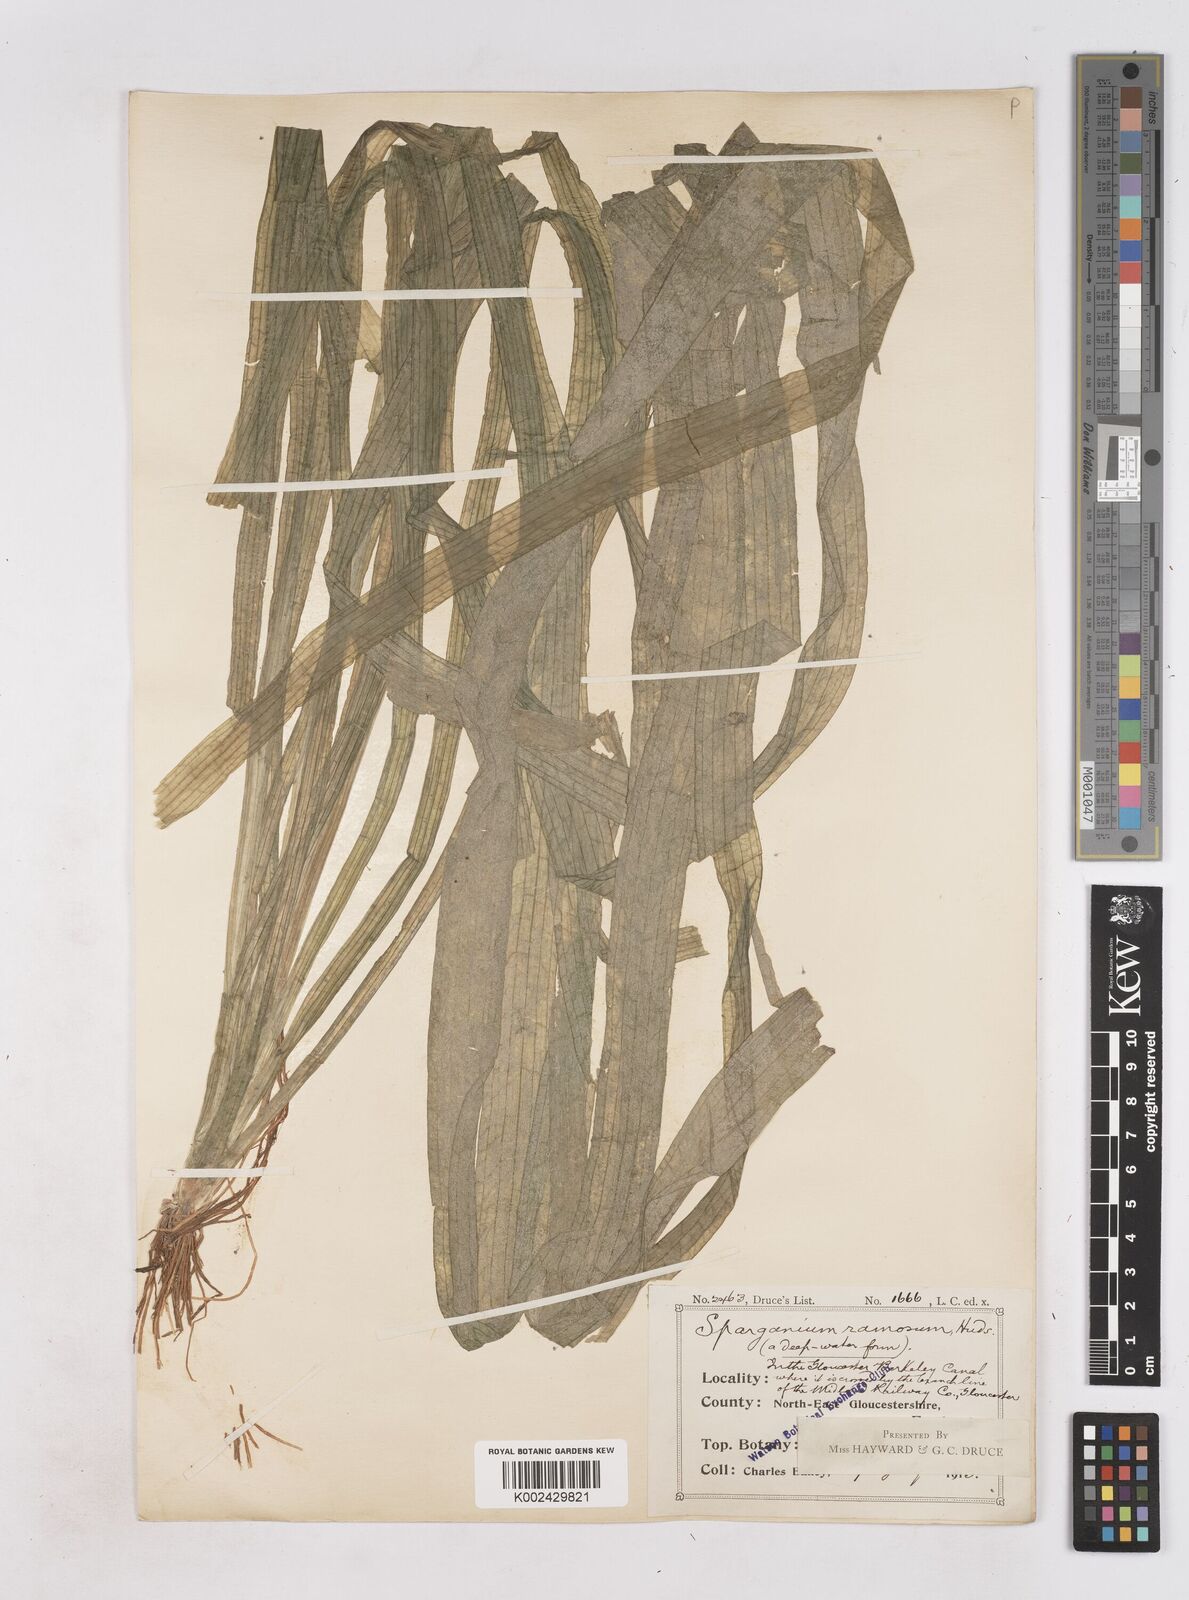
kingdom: Plantae
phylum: Tracheophyta
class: Liliopsida
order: Poales
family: Typhaceae
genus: Sparganium
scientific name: Sparganium erectum
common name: Branched bur-reed
